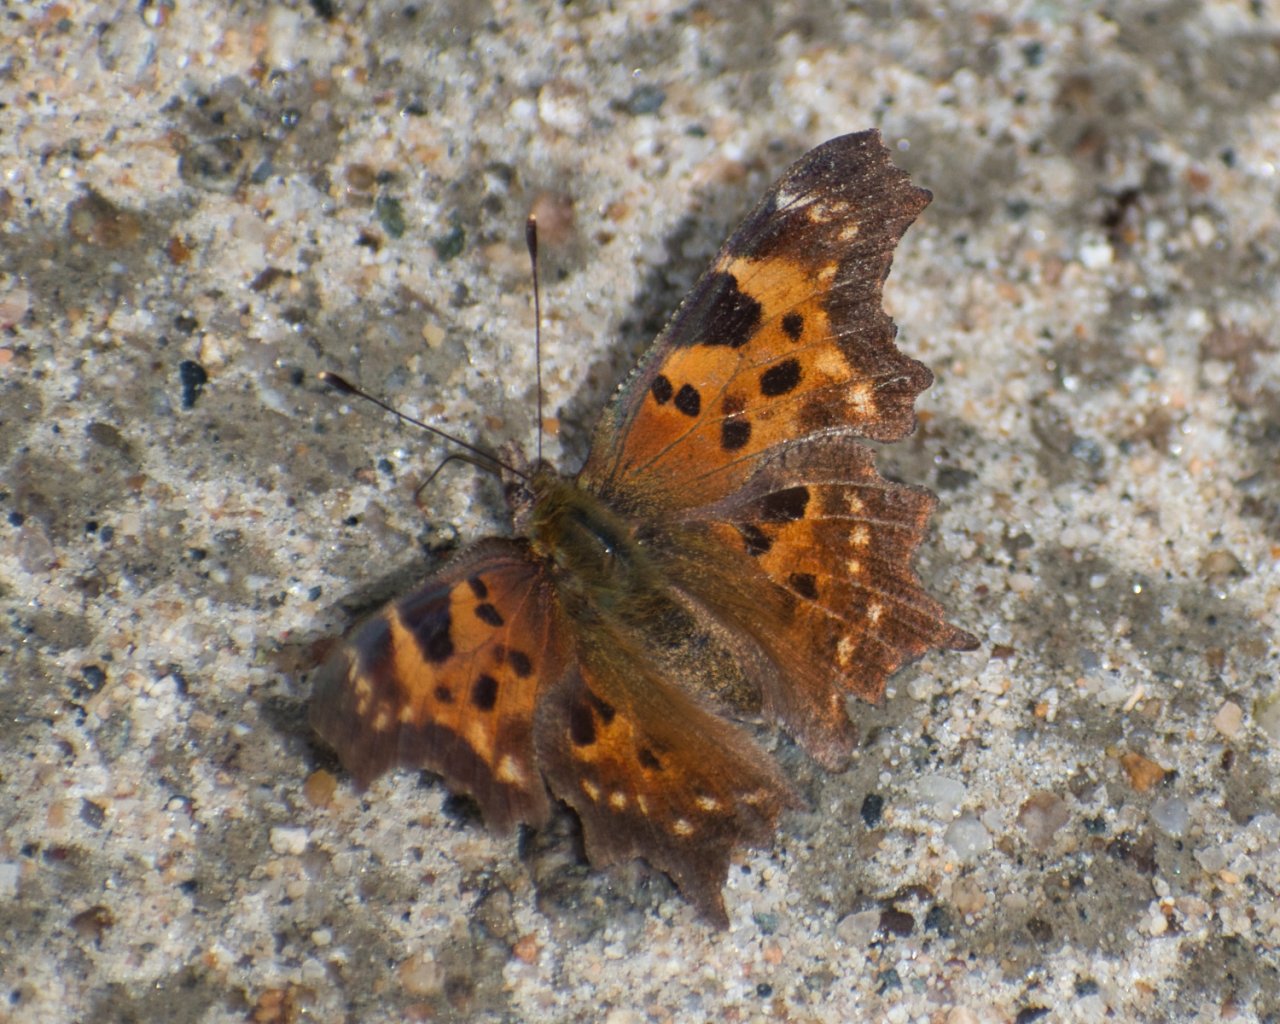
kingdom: Animalia
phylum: Arthropoda
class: Insecta
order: Lepidoptera
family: Nymphalidae
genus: Polygonia
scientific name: Polygonia faunus
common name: Green Comma
